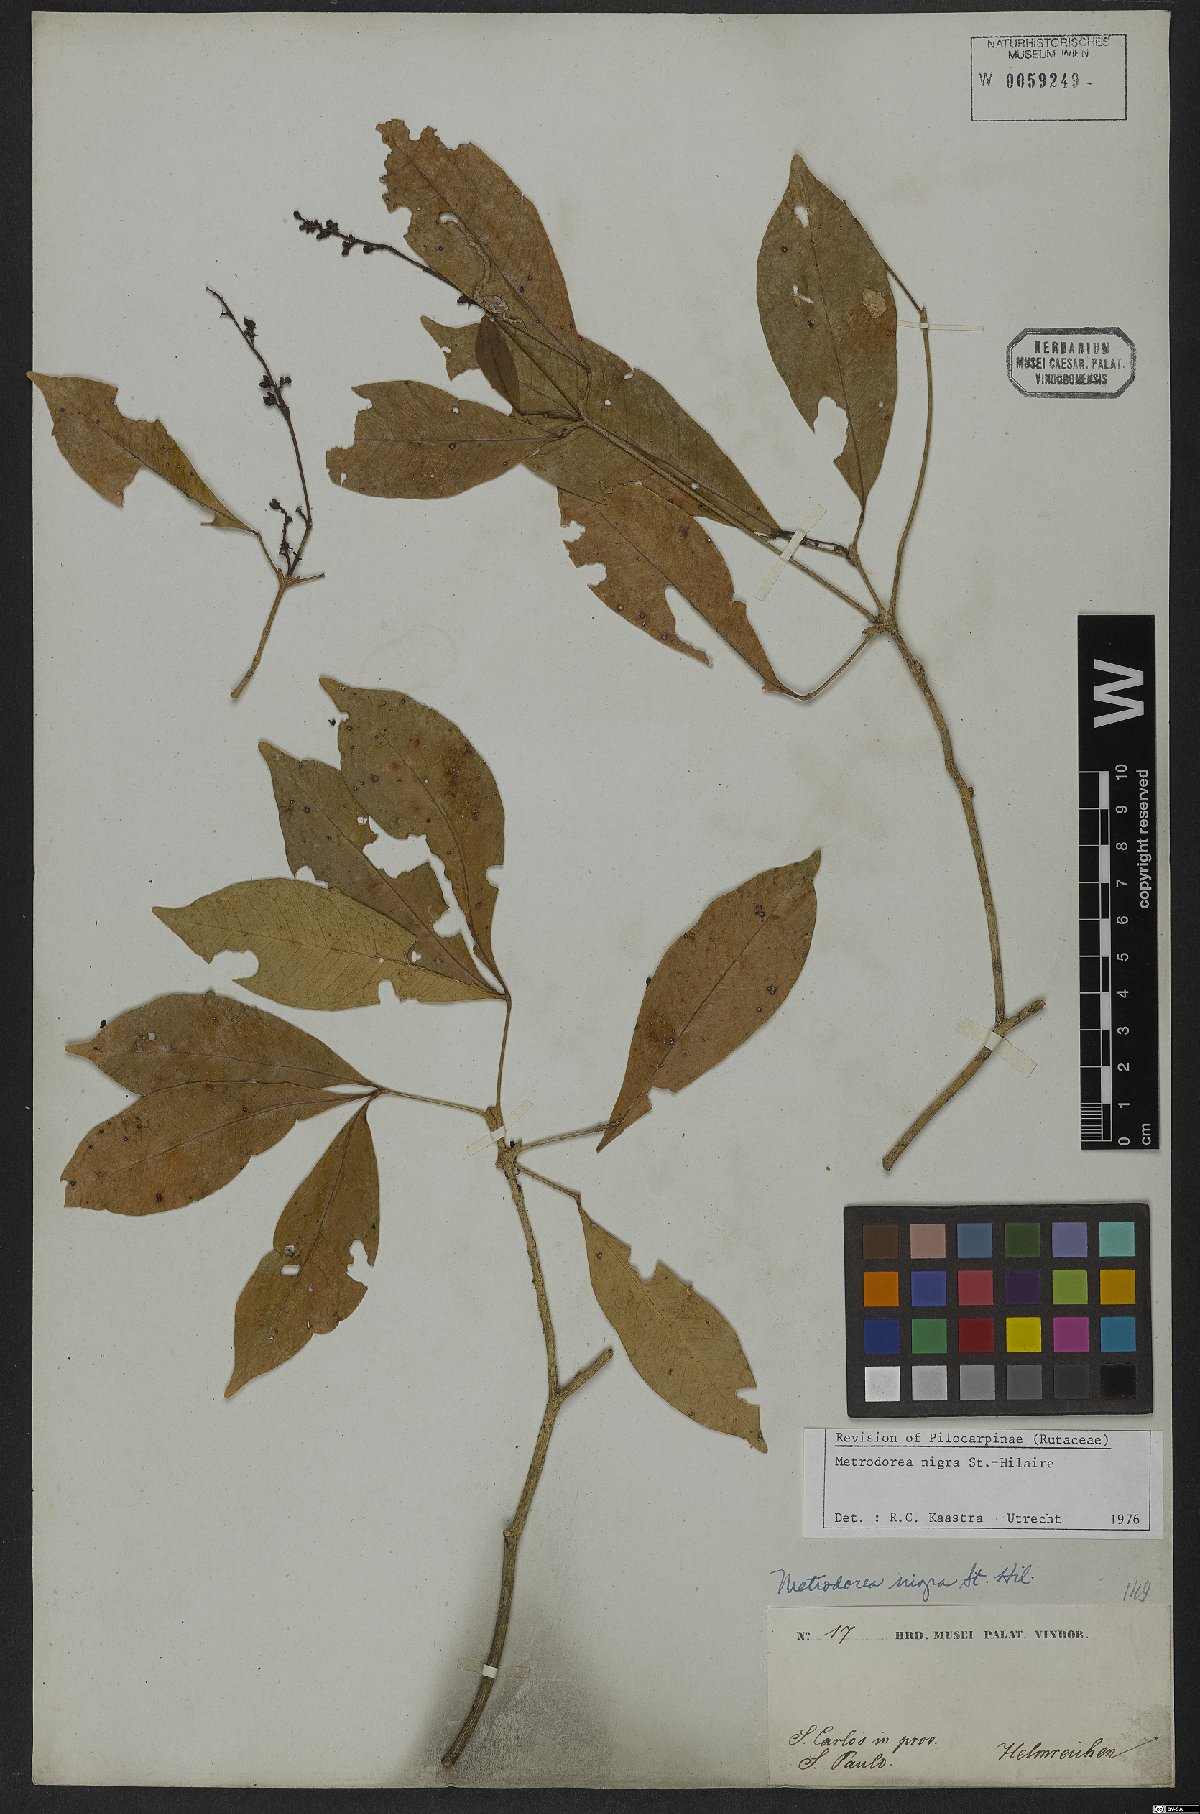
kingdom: Plantae
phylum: Tracheophyta
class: Magnoliopsida
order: Sapindales
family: Rutaceae
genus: Metrodorea
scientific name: Metrodorea nigra
